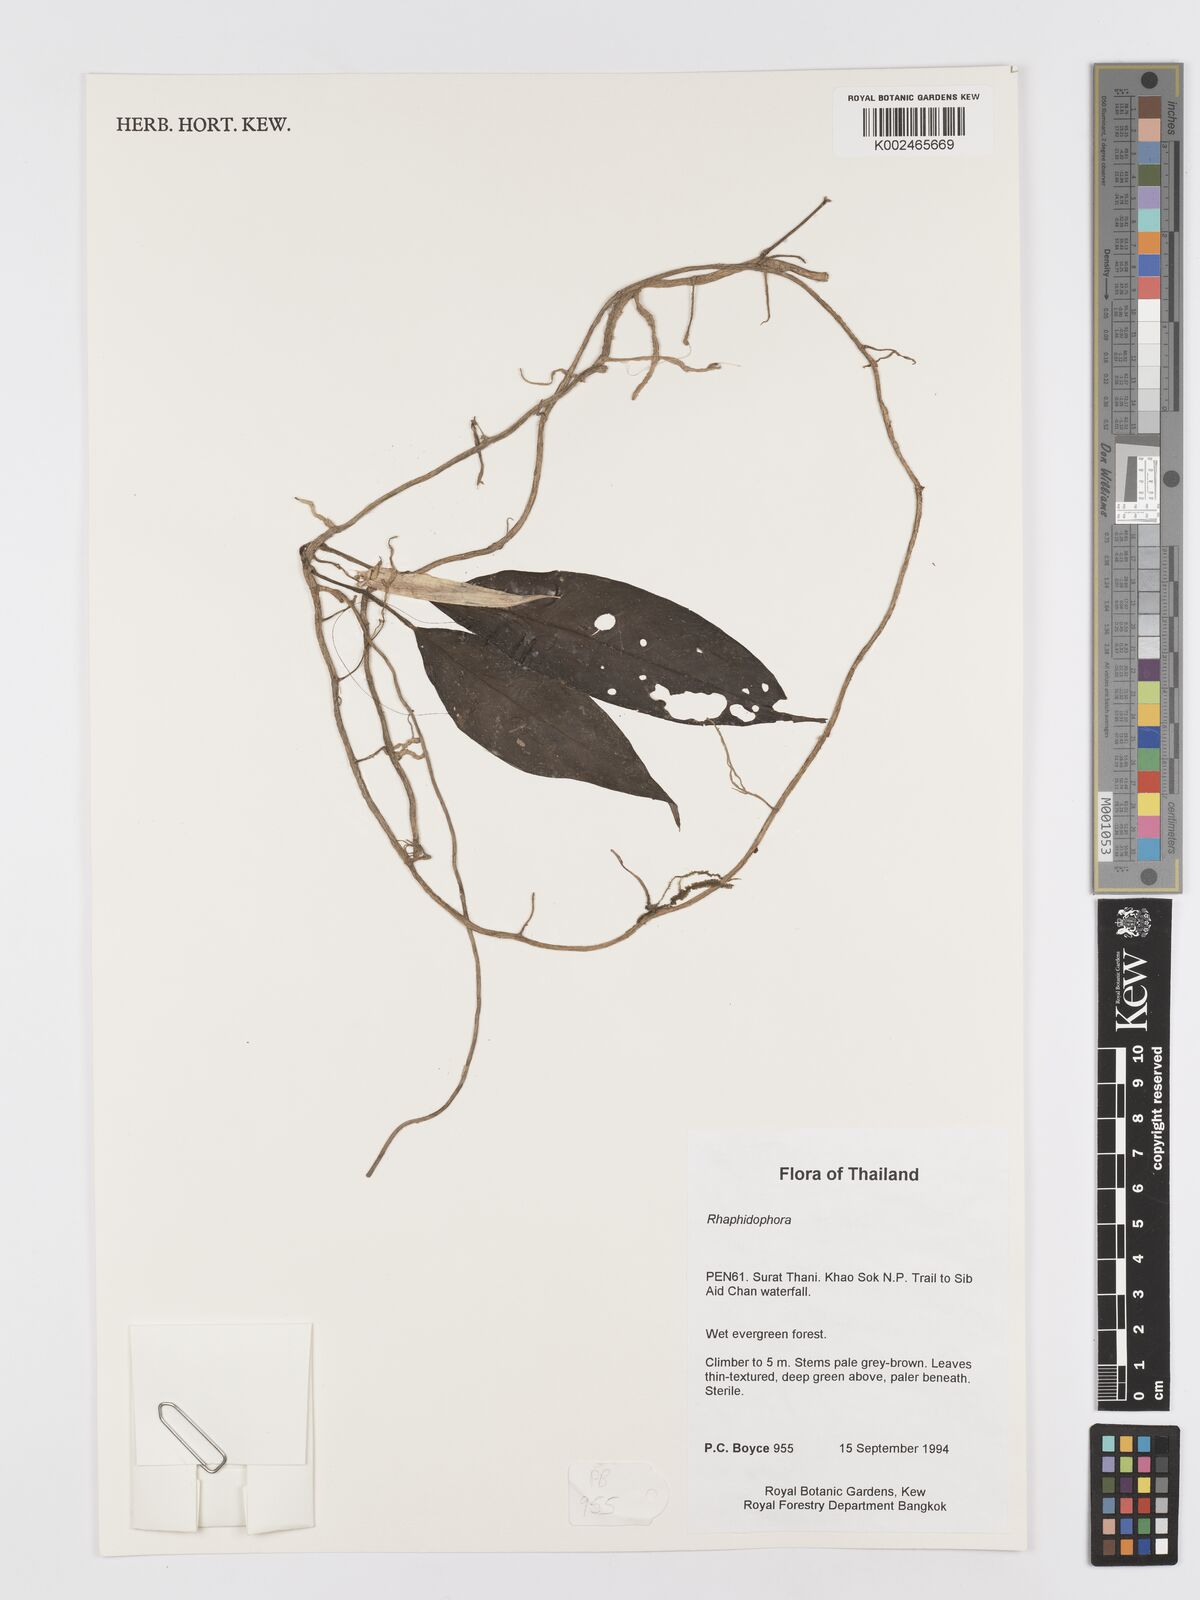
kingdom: Plantae
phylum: Tracheophyta
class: Liliopsida
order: Alismatales
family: Araceae
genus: Rhaphidophora
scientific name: Rhaphidophora lobbii
